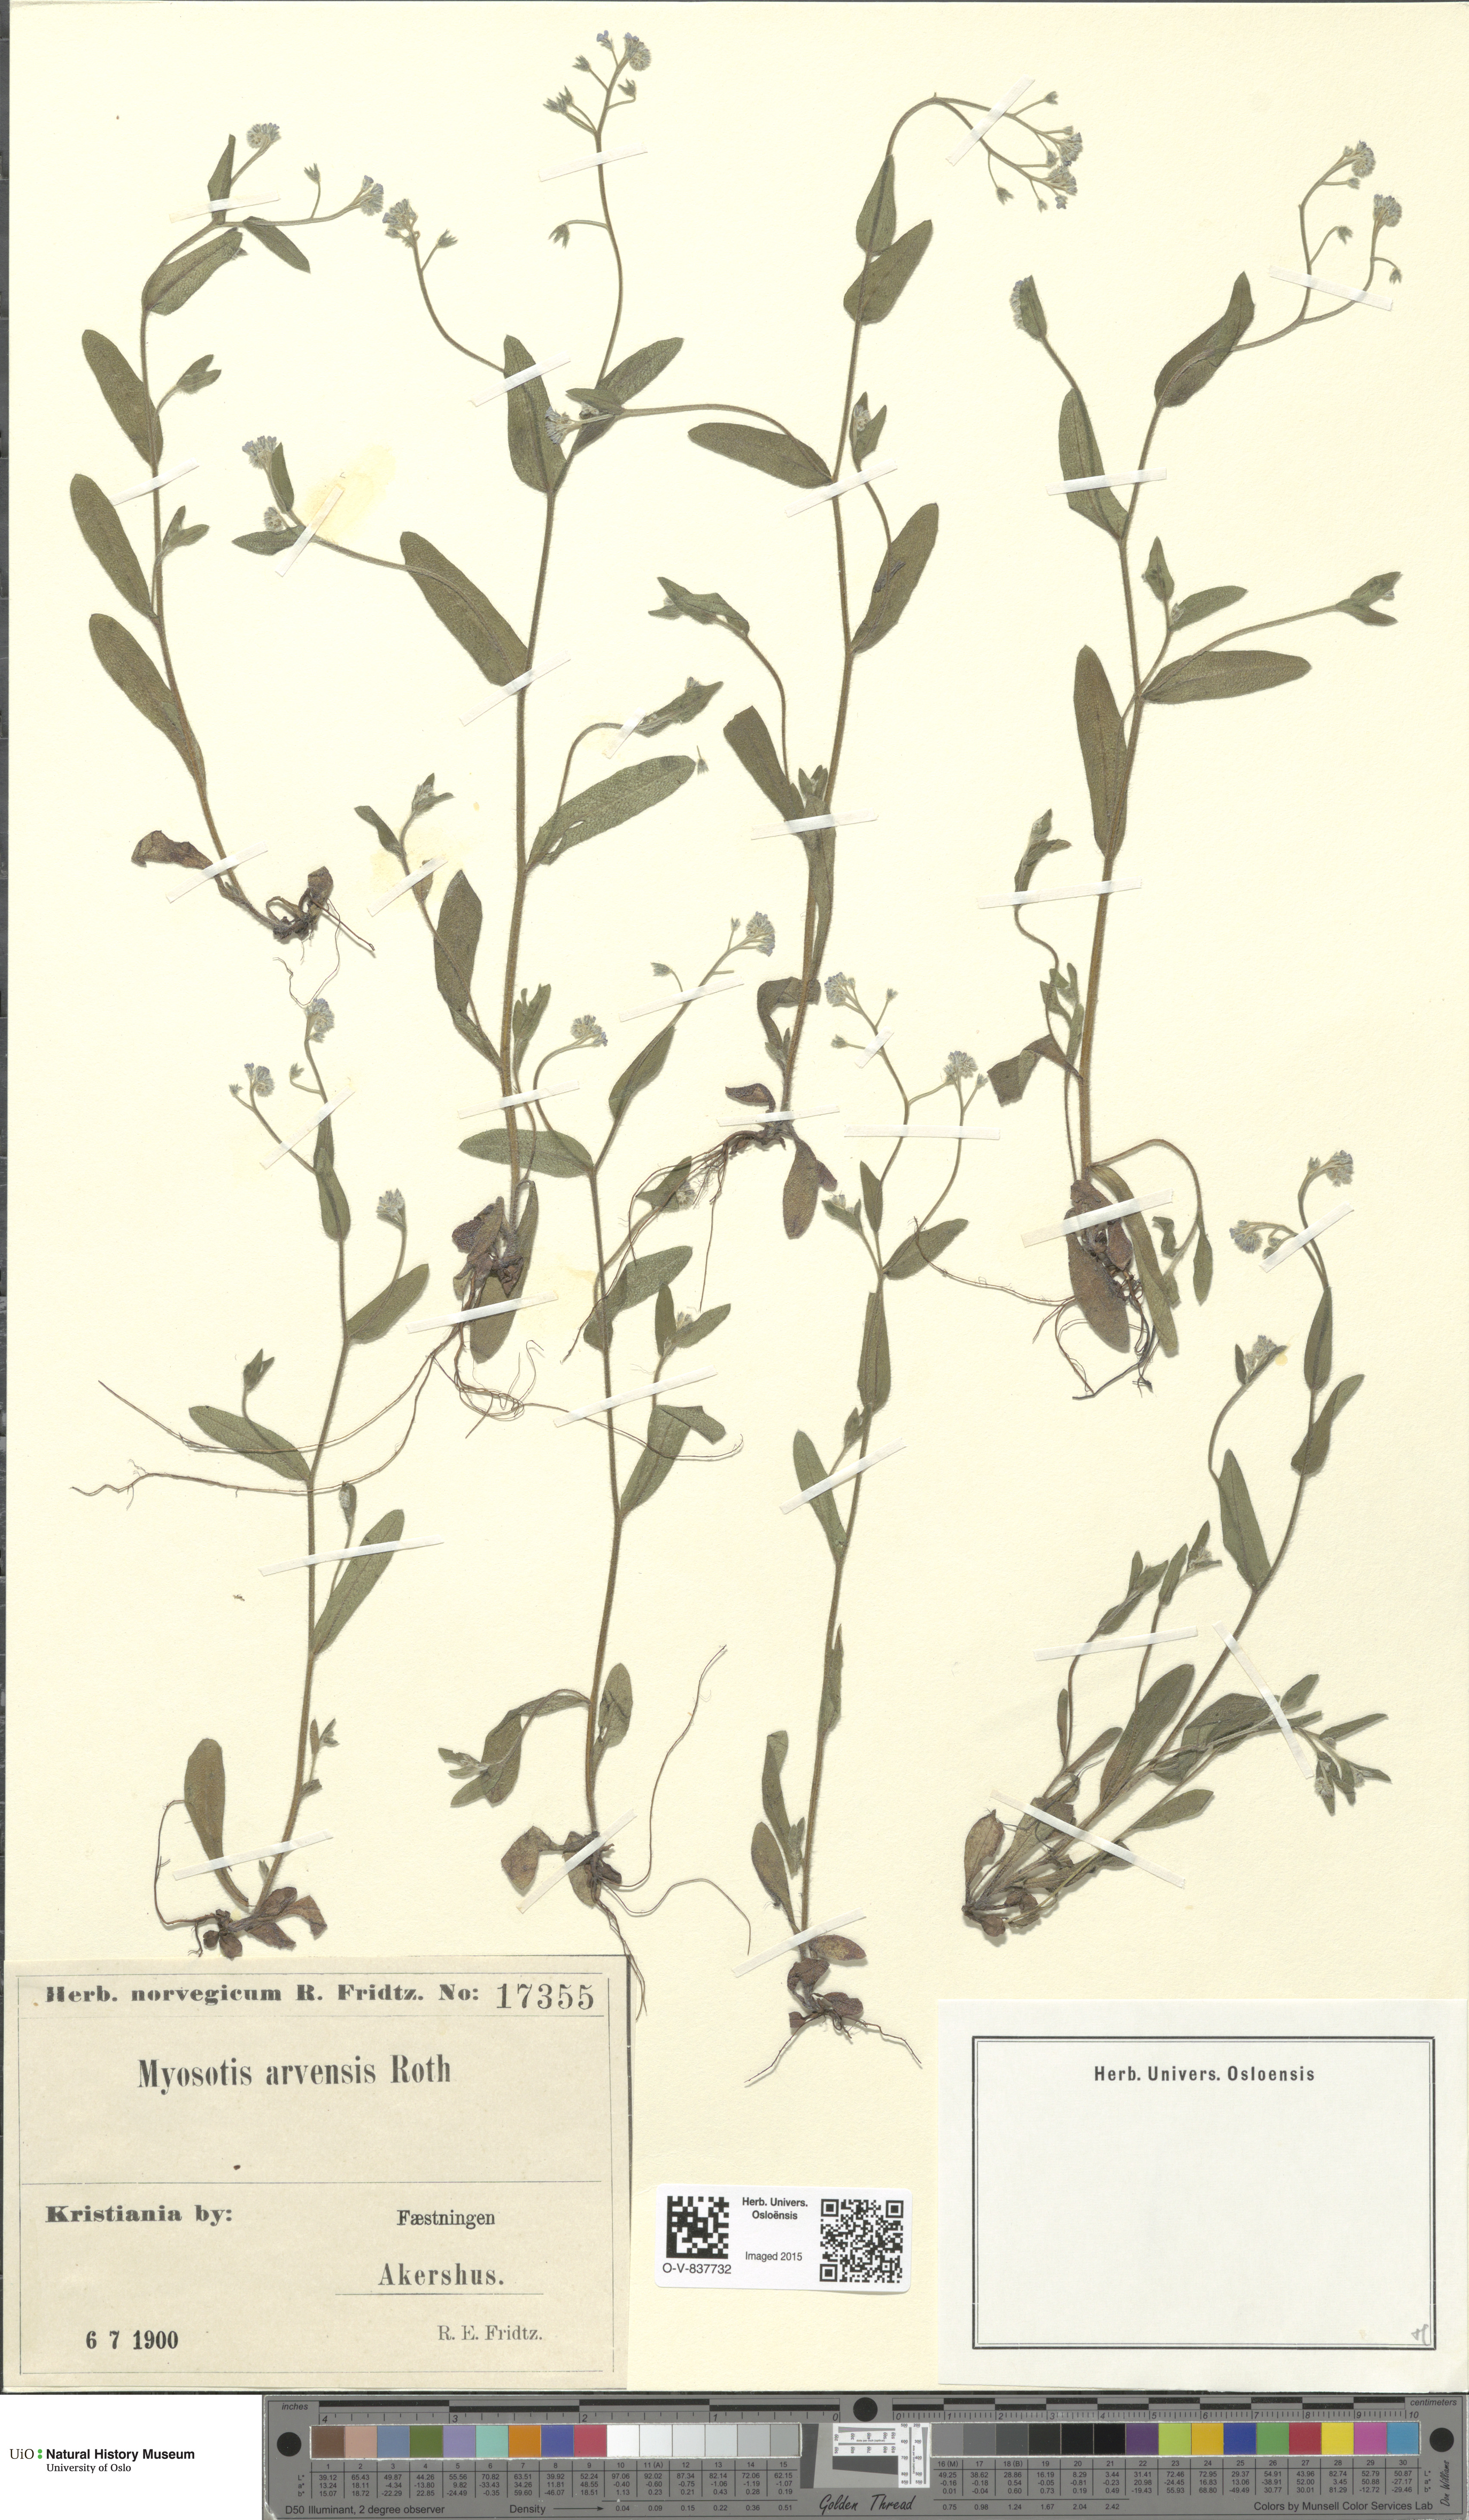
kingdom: Plantae
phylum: Tracheophyta
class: Magnoliopsida
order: Boraginales
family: Boraginaceae
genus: Myosotis
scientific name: Myosotis arvensis
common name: Field forget-me-not
